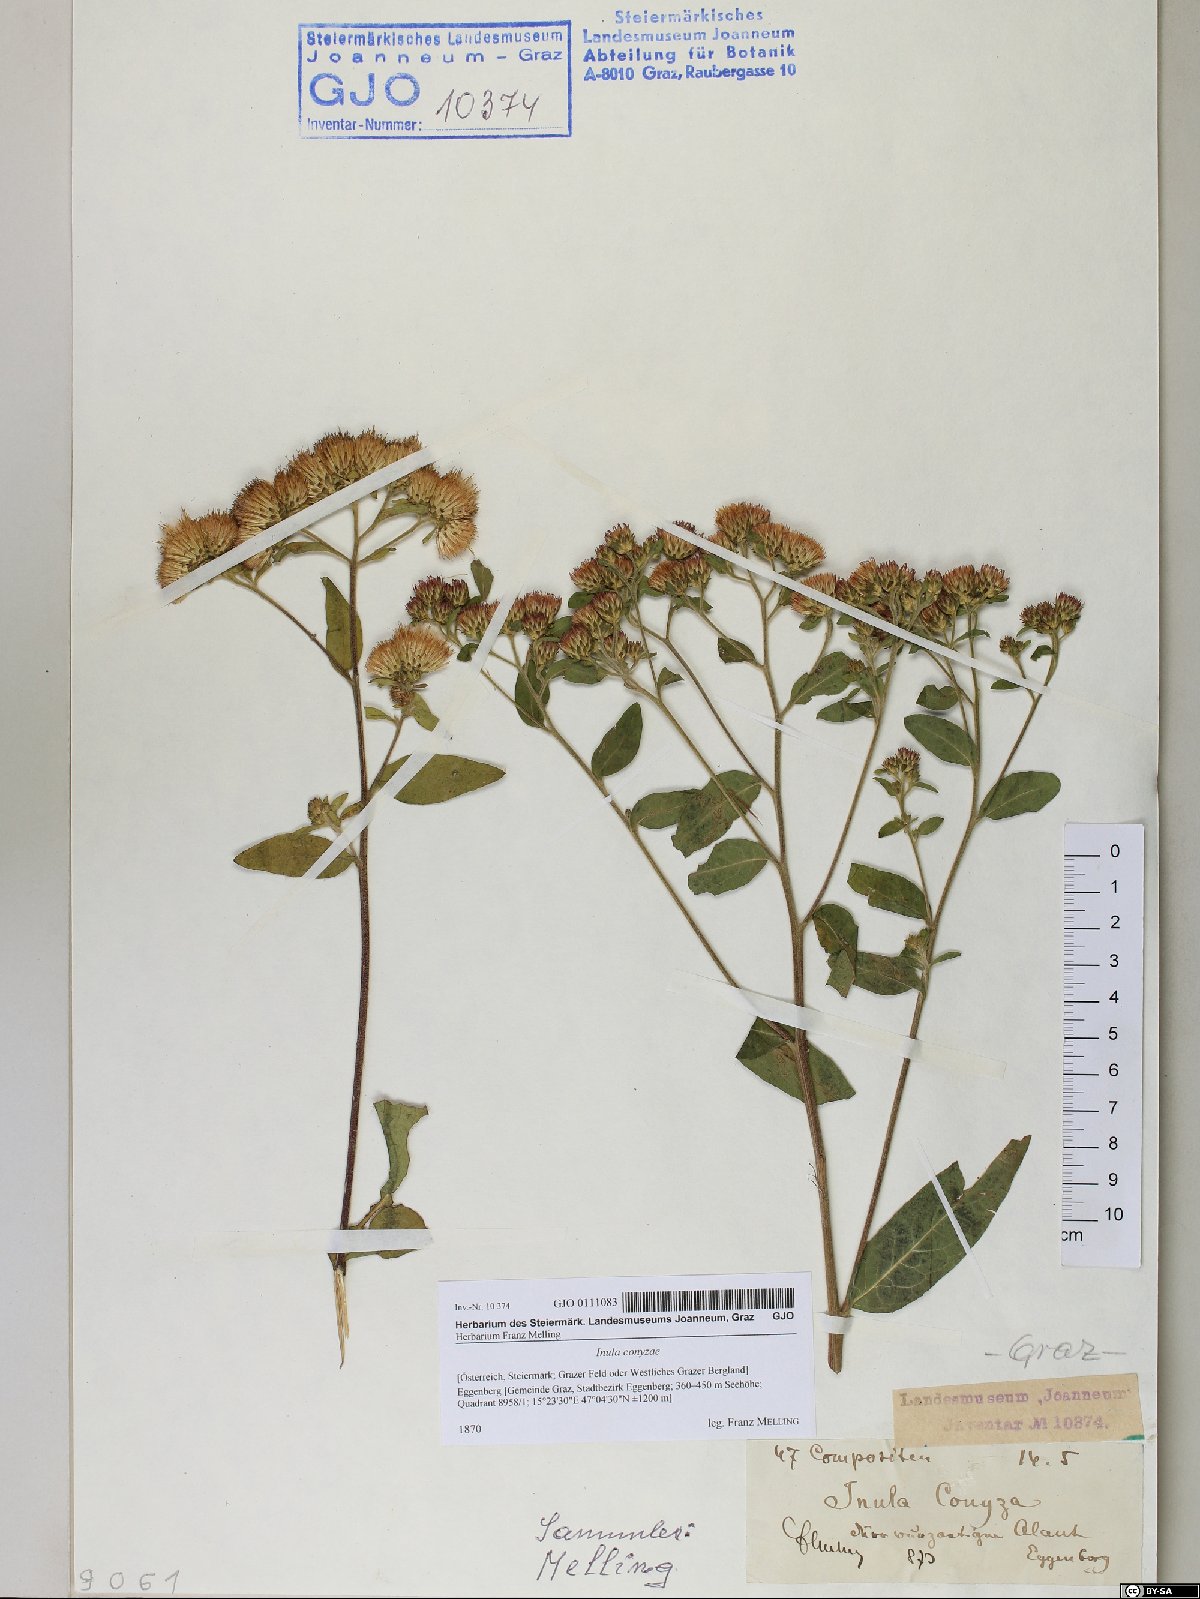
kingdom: Plantae
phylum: Tracheophyta
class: Magnoliopsida
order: Asterales
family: Asteraceae
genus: Pentanema
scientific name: Pentanema squarrosum
